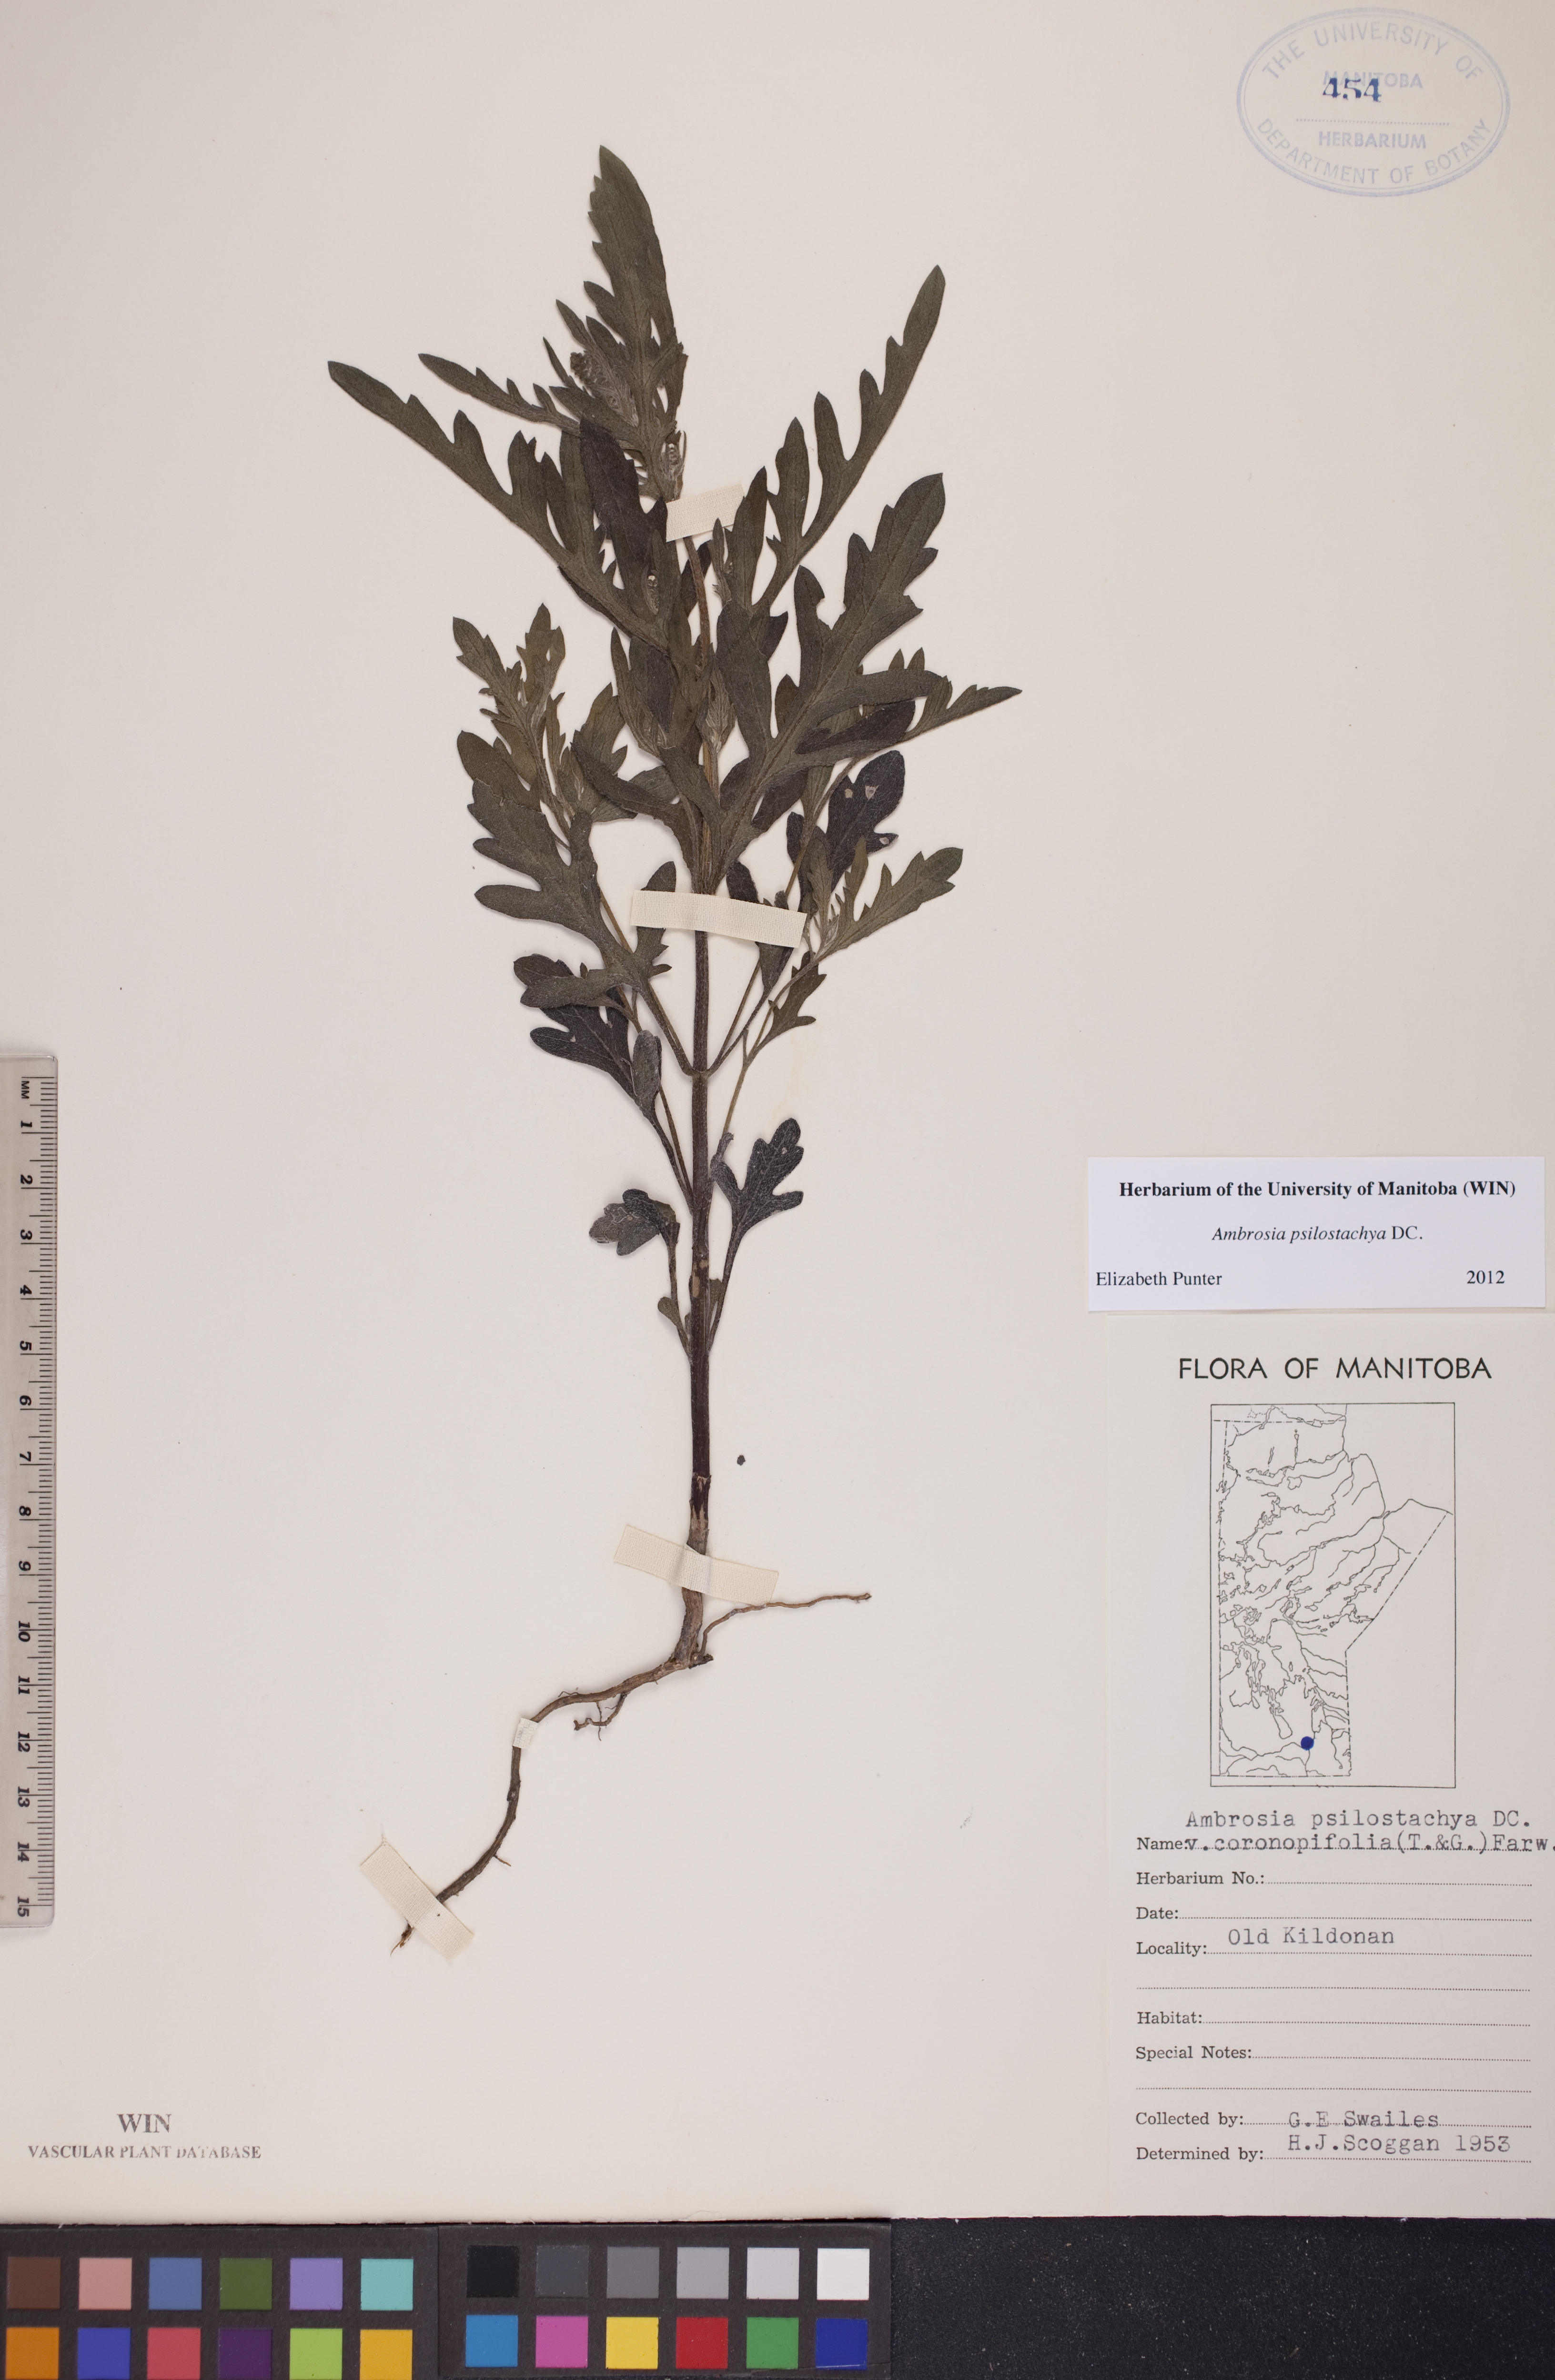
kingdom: Plantae
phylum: Tracheophyta
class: Magnoliopsida
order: Asterales
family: Asteraceae
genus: Ambrosia
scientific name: Ambrosia psilostachya
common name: Perennial ragweed
